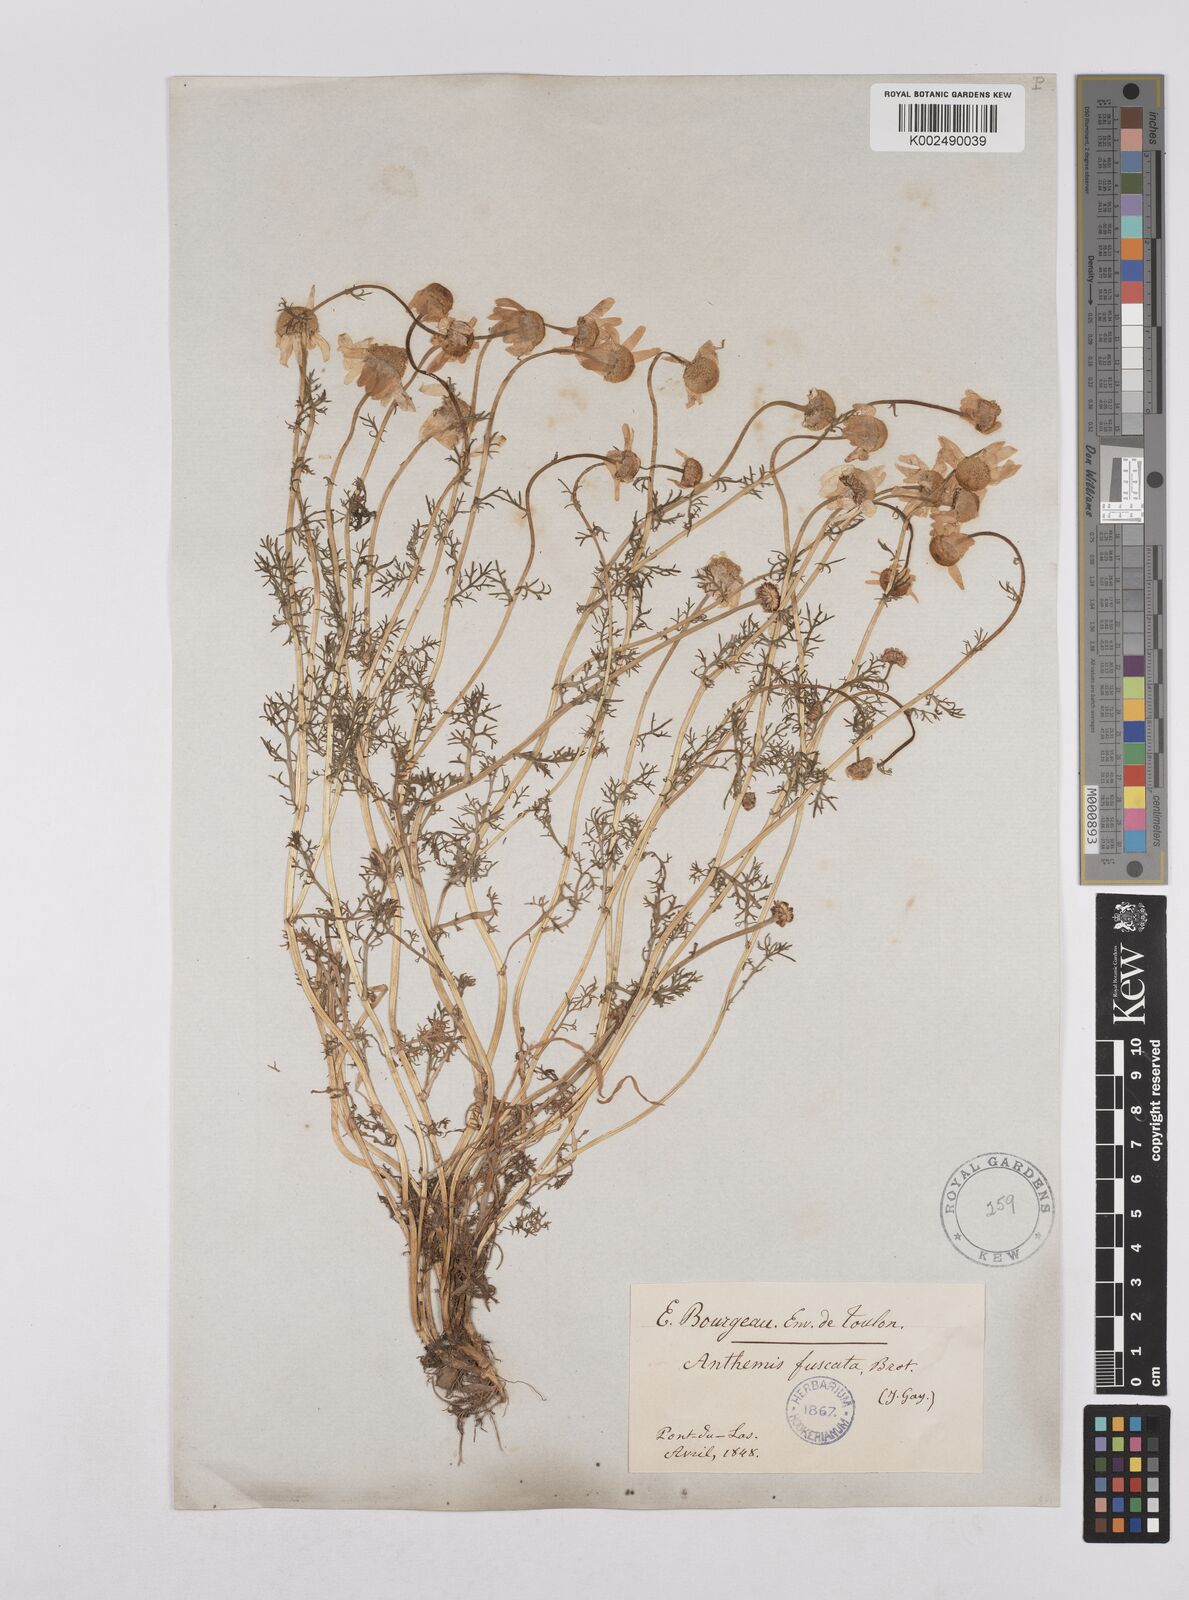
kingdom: Plantae
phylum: Tracheophyta
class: Magnoliopsida
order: Asterales
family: Asteraceae
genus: Chamaemelum
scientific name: Chamaemelum fuscatum
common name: Chamomile
